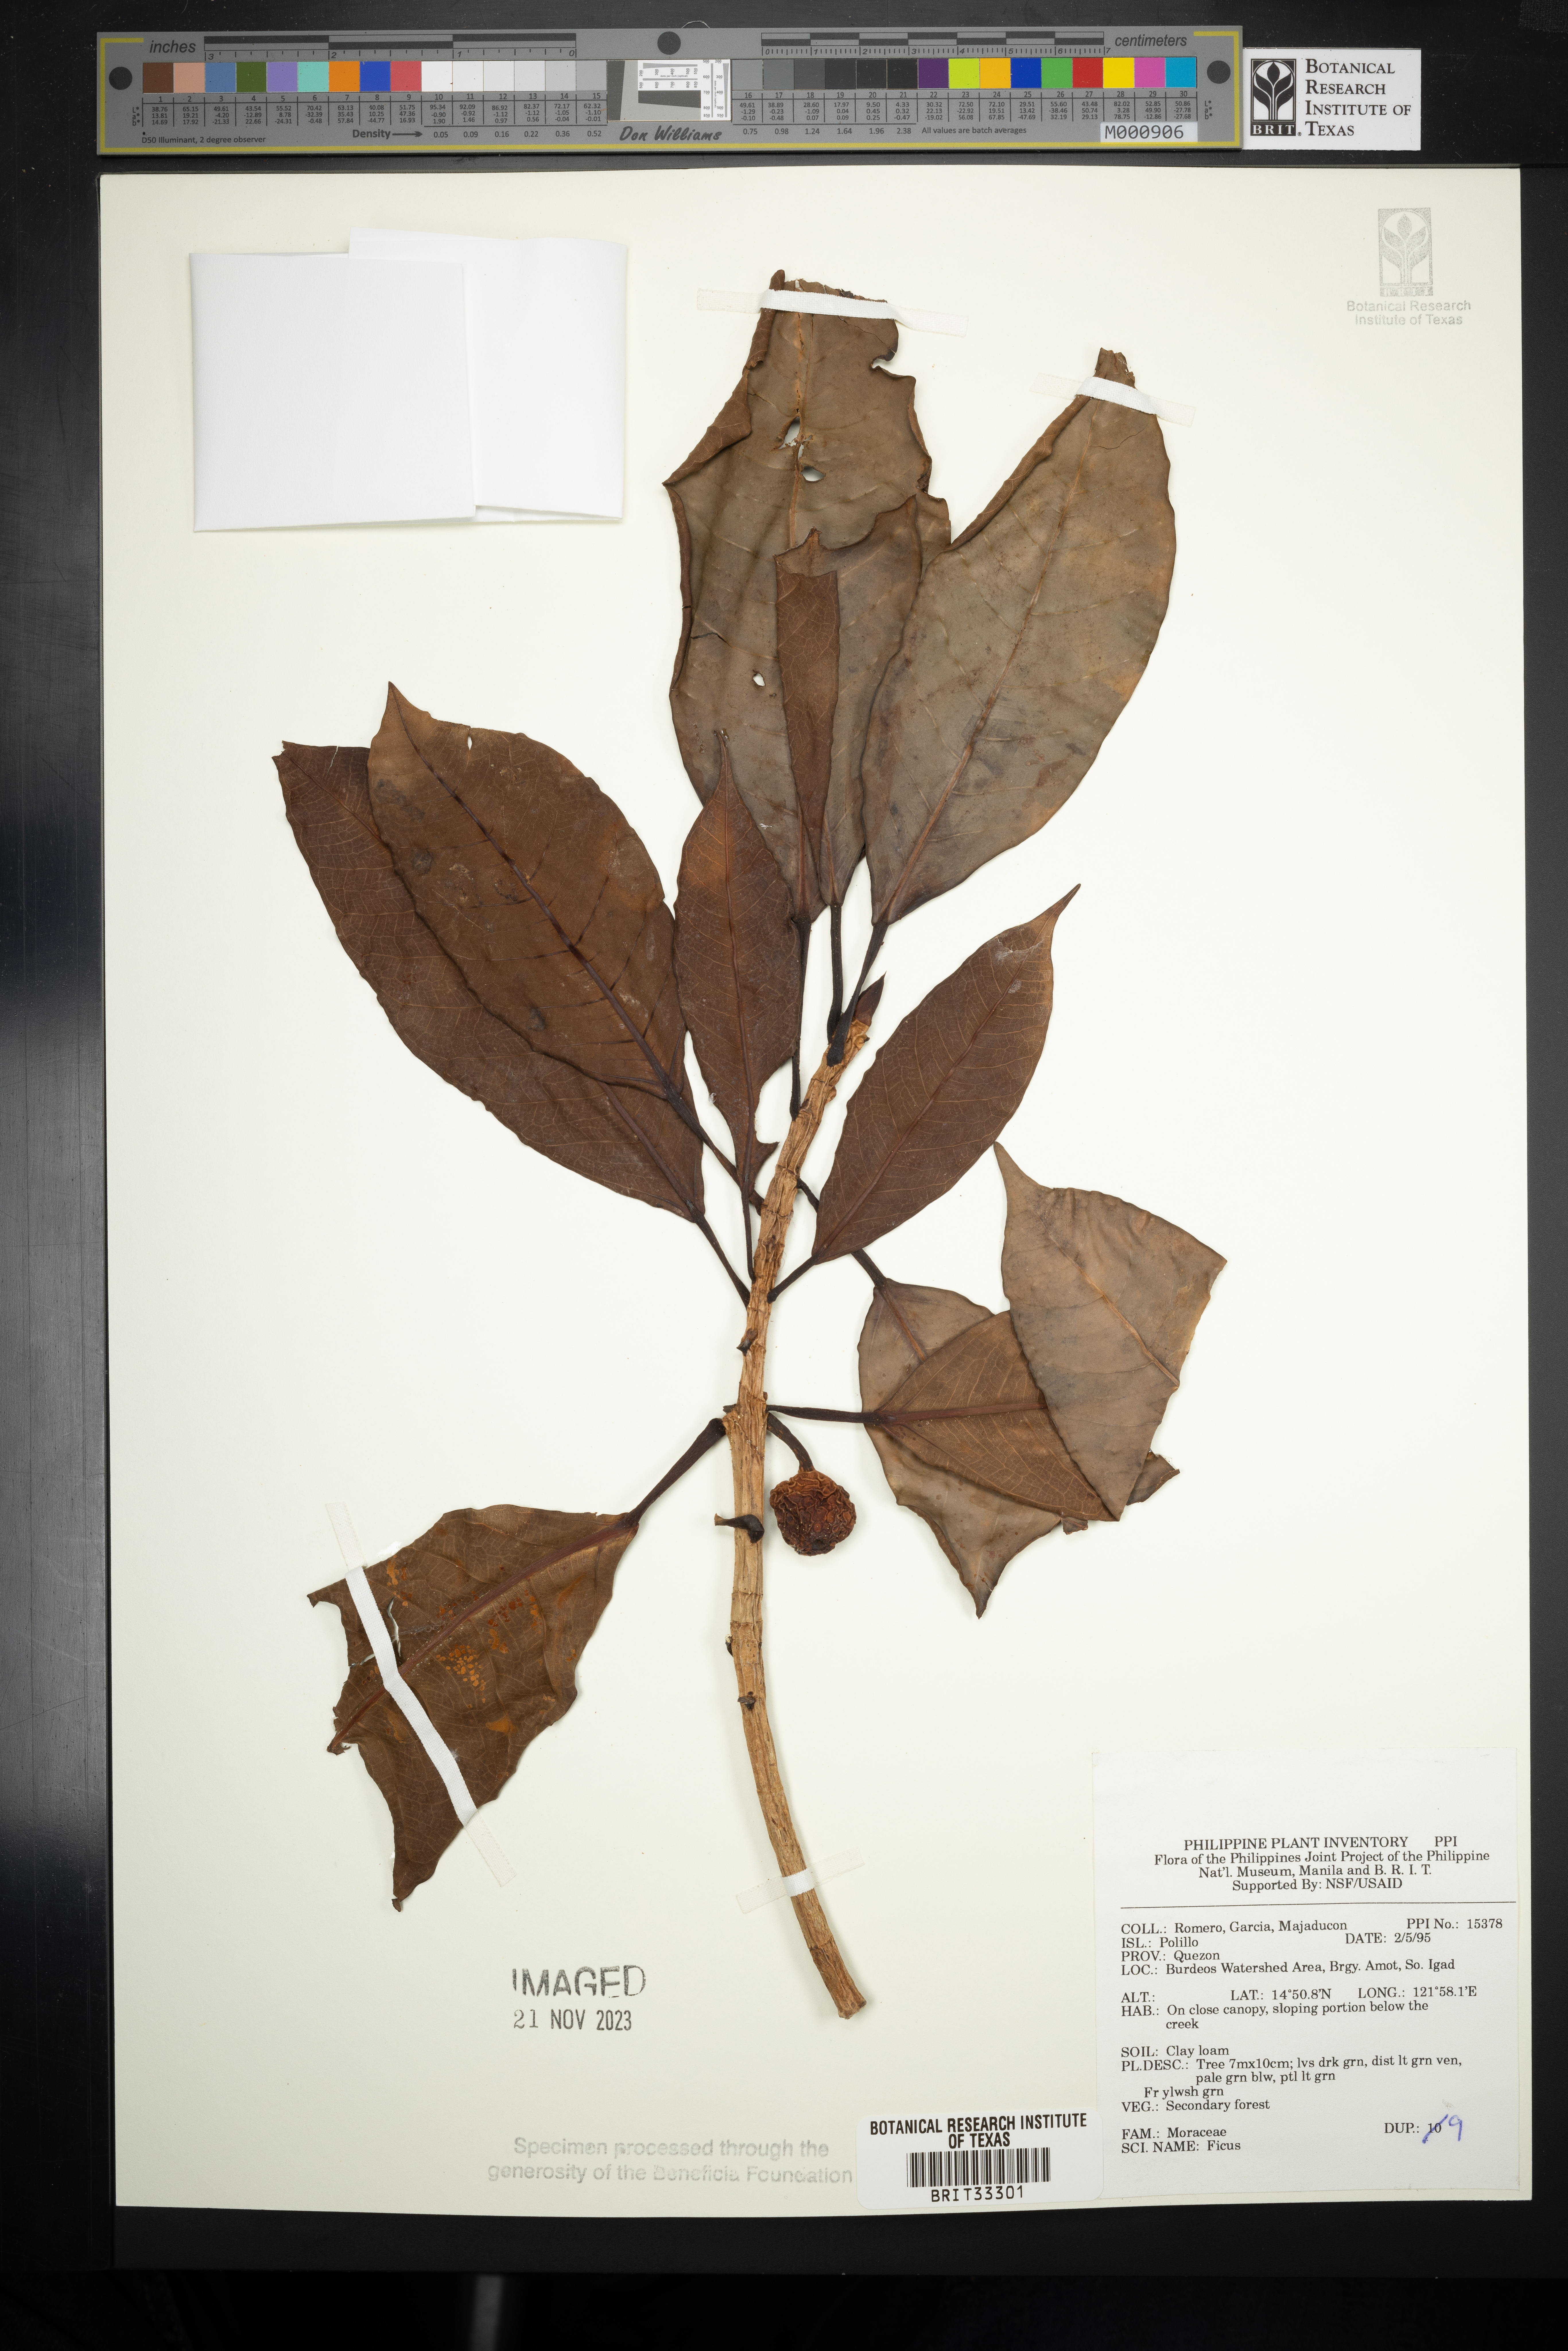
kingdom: Plantae
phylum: Tracheophyta
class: Magnoliopsida
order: Rosales
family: Moraceae
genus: Ficus
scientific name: Ficus
